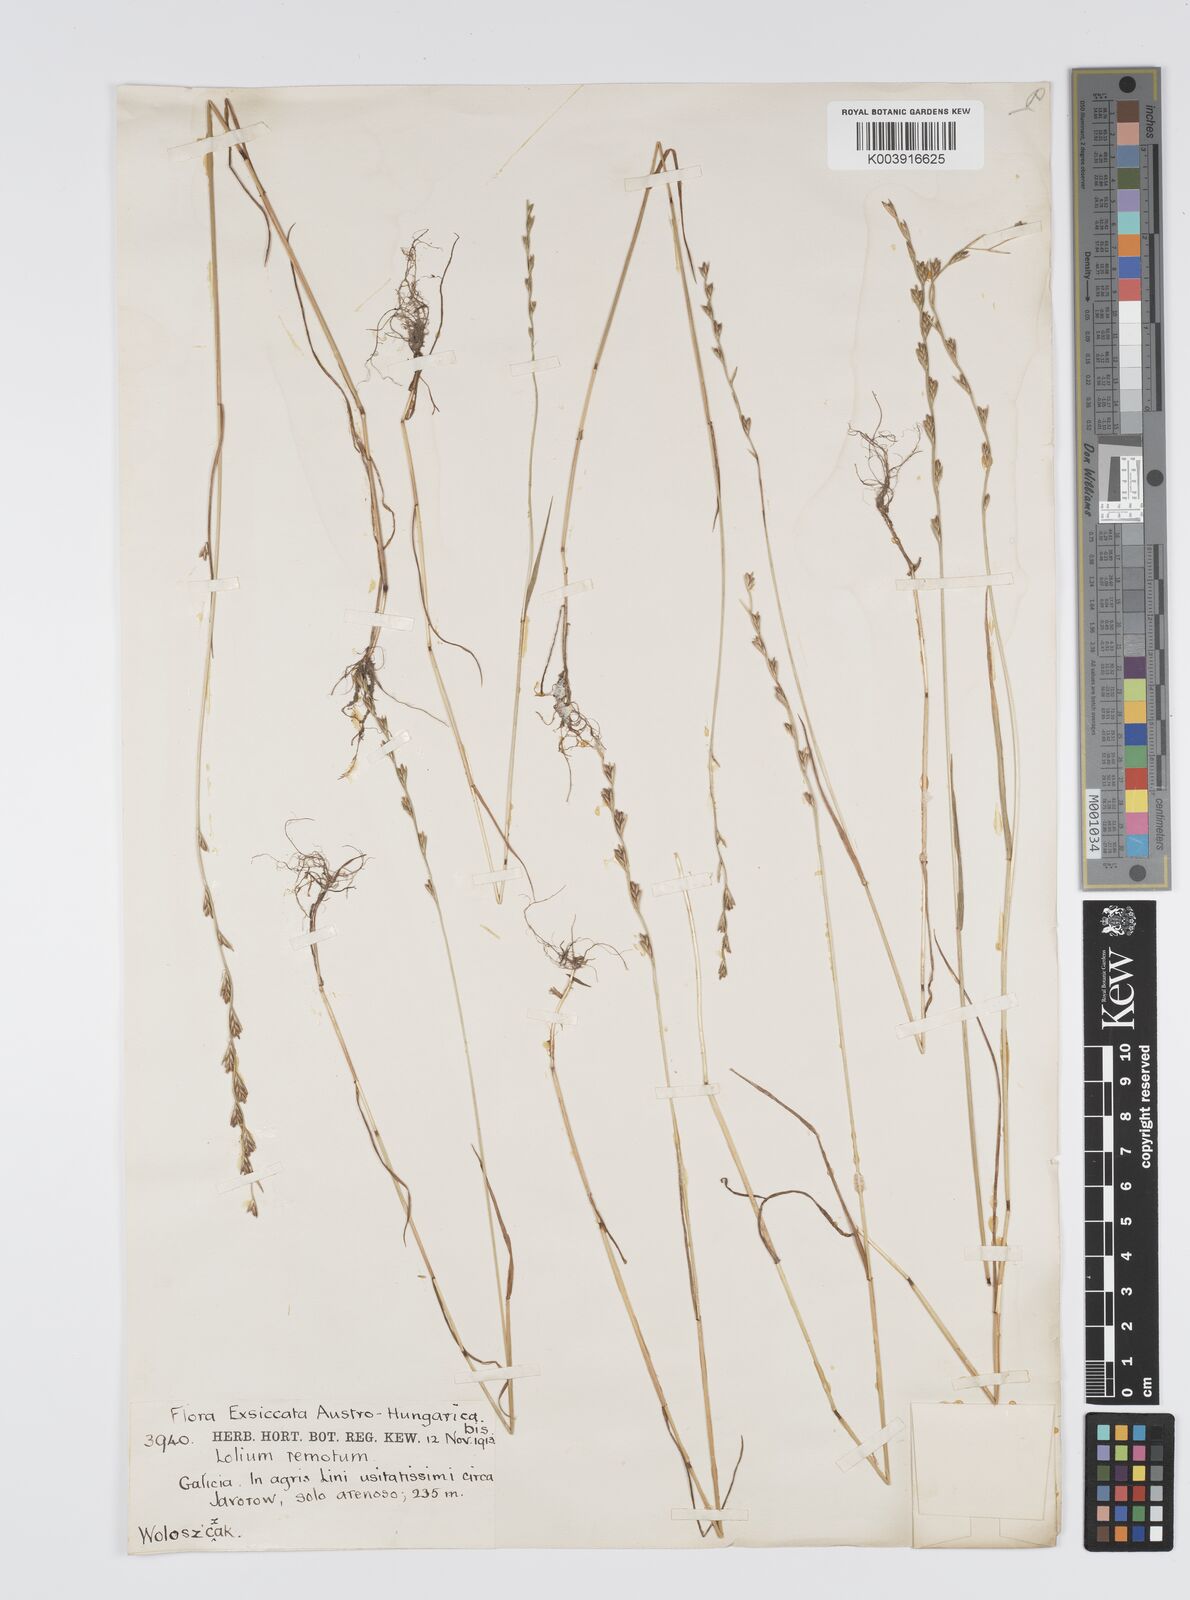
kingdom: Plantae
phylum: Tracheophyta
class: Liliopsida
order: Poales
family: Poaceae
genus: Lolium
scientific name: Lolium remotum
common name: Flaxfield rye-grass
